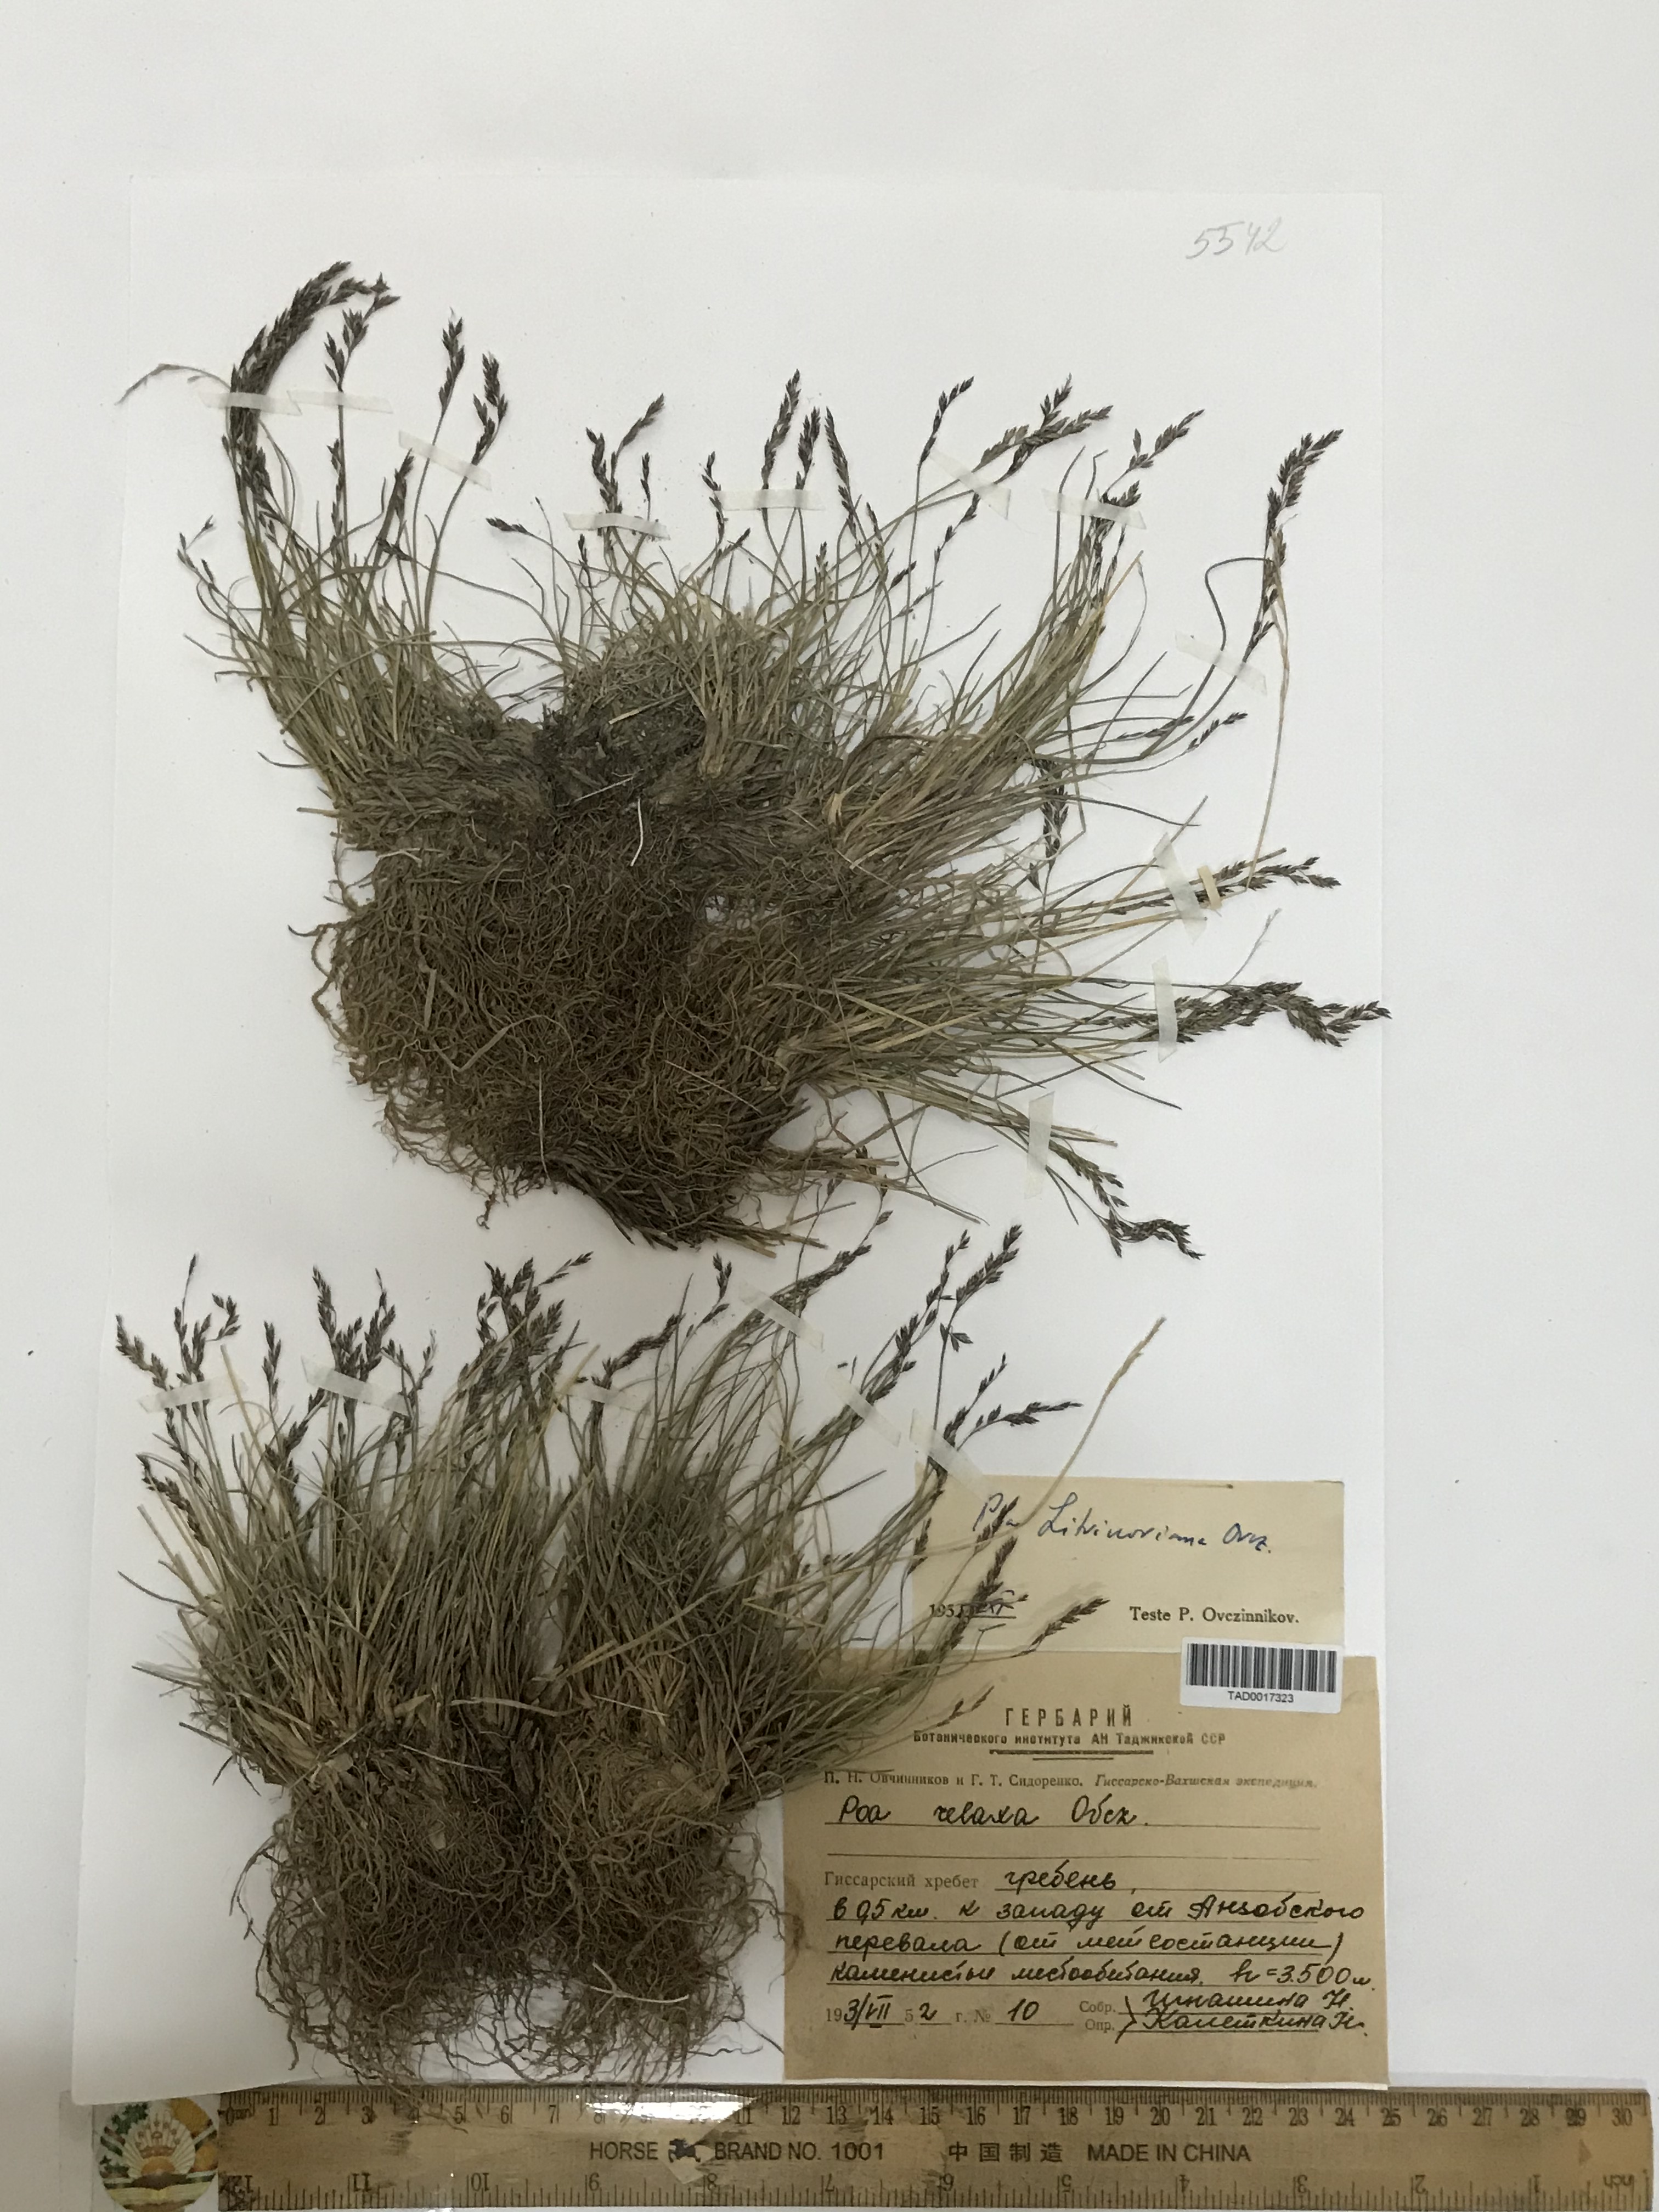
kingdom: Plantae
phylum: Tracheophyta
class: Liliopsida
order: Poales
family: Poaceae
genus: Poa
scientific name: Poa reflexa
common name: Nodding bluegrass
